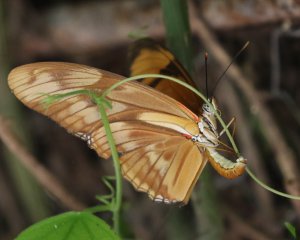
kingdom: Animalia
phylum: Arthropoda
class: Insecta
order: Lepidoptera
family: Nymphalidae
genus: Dryas
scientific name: Dryas iulia
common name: Julia
